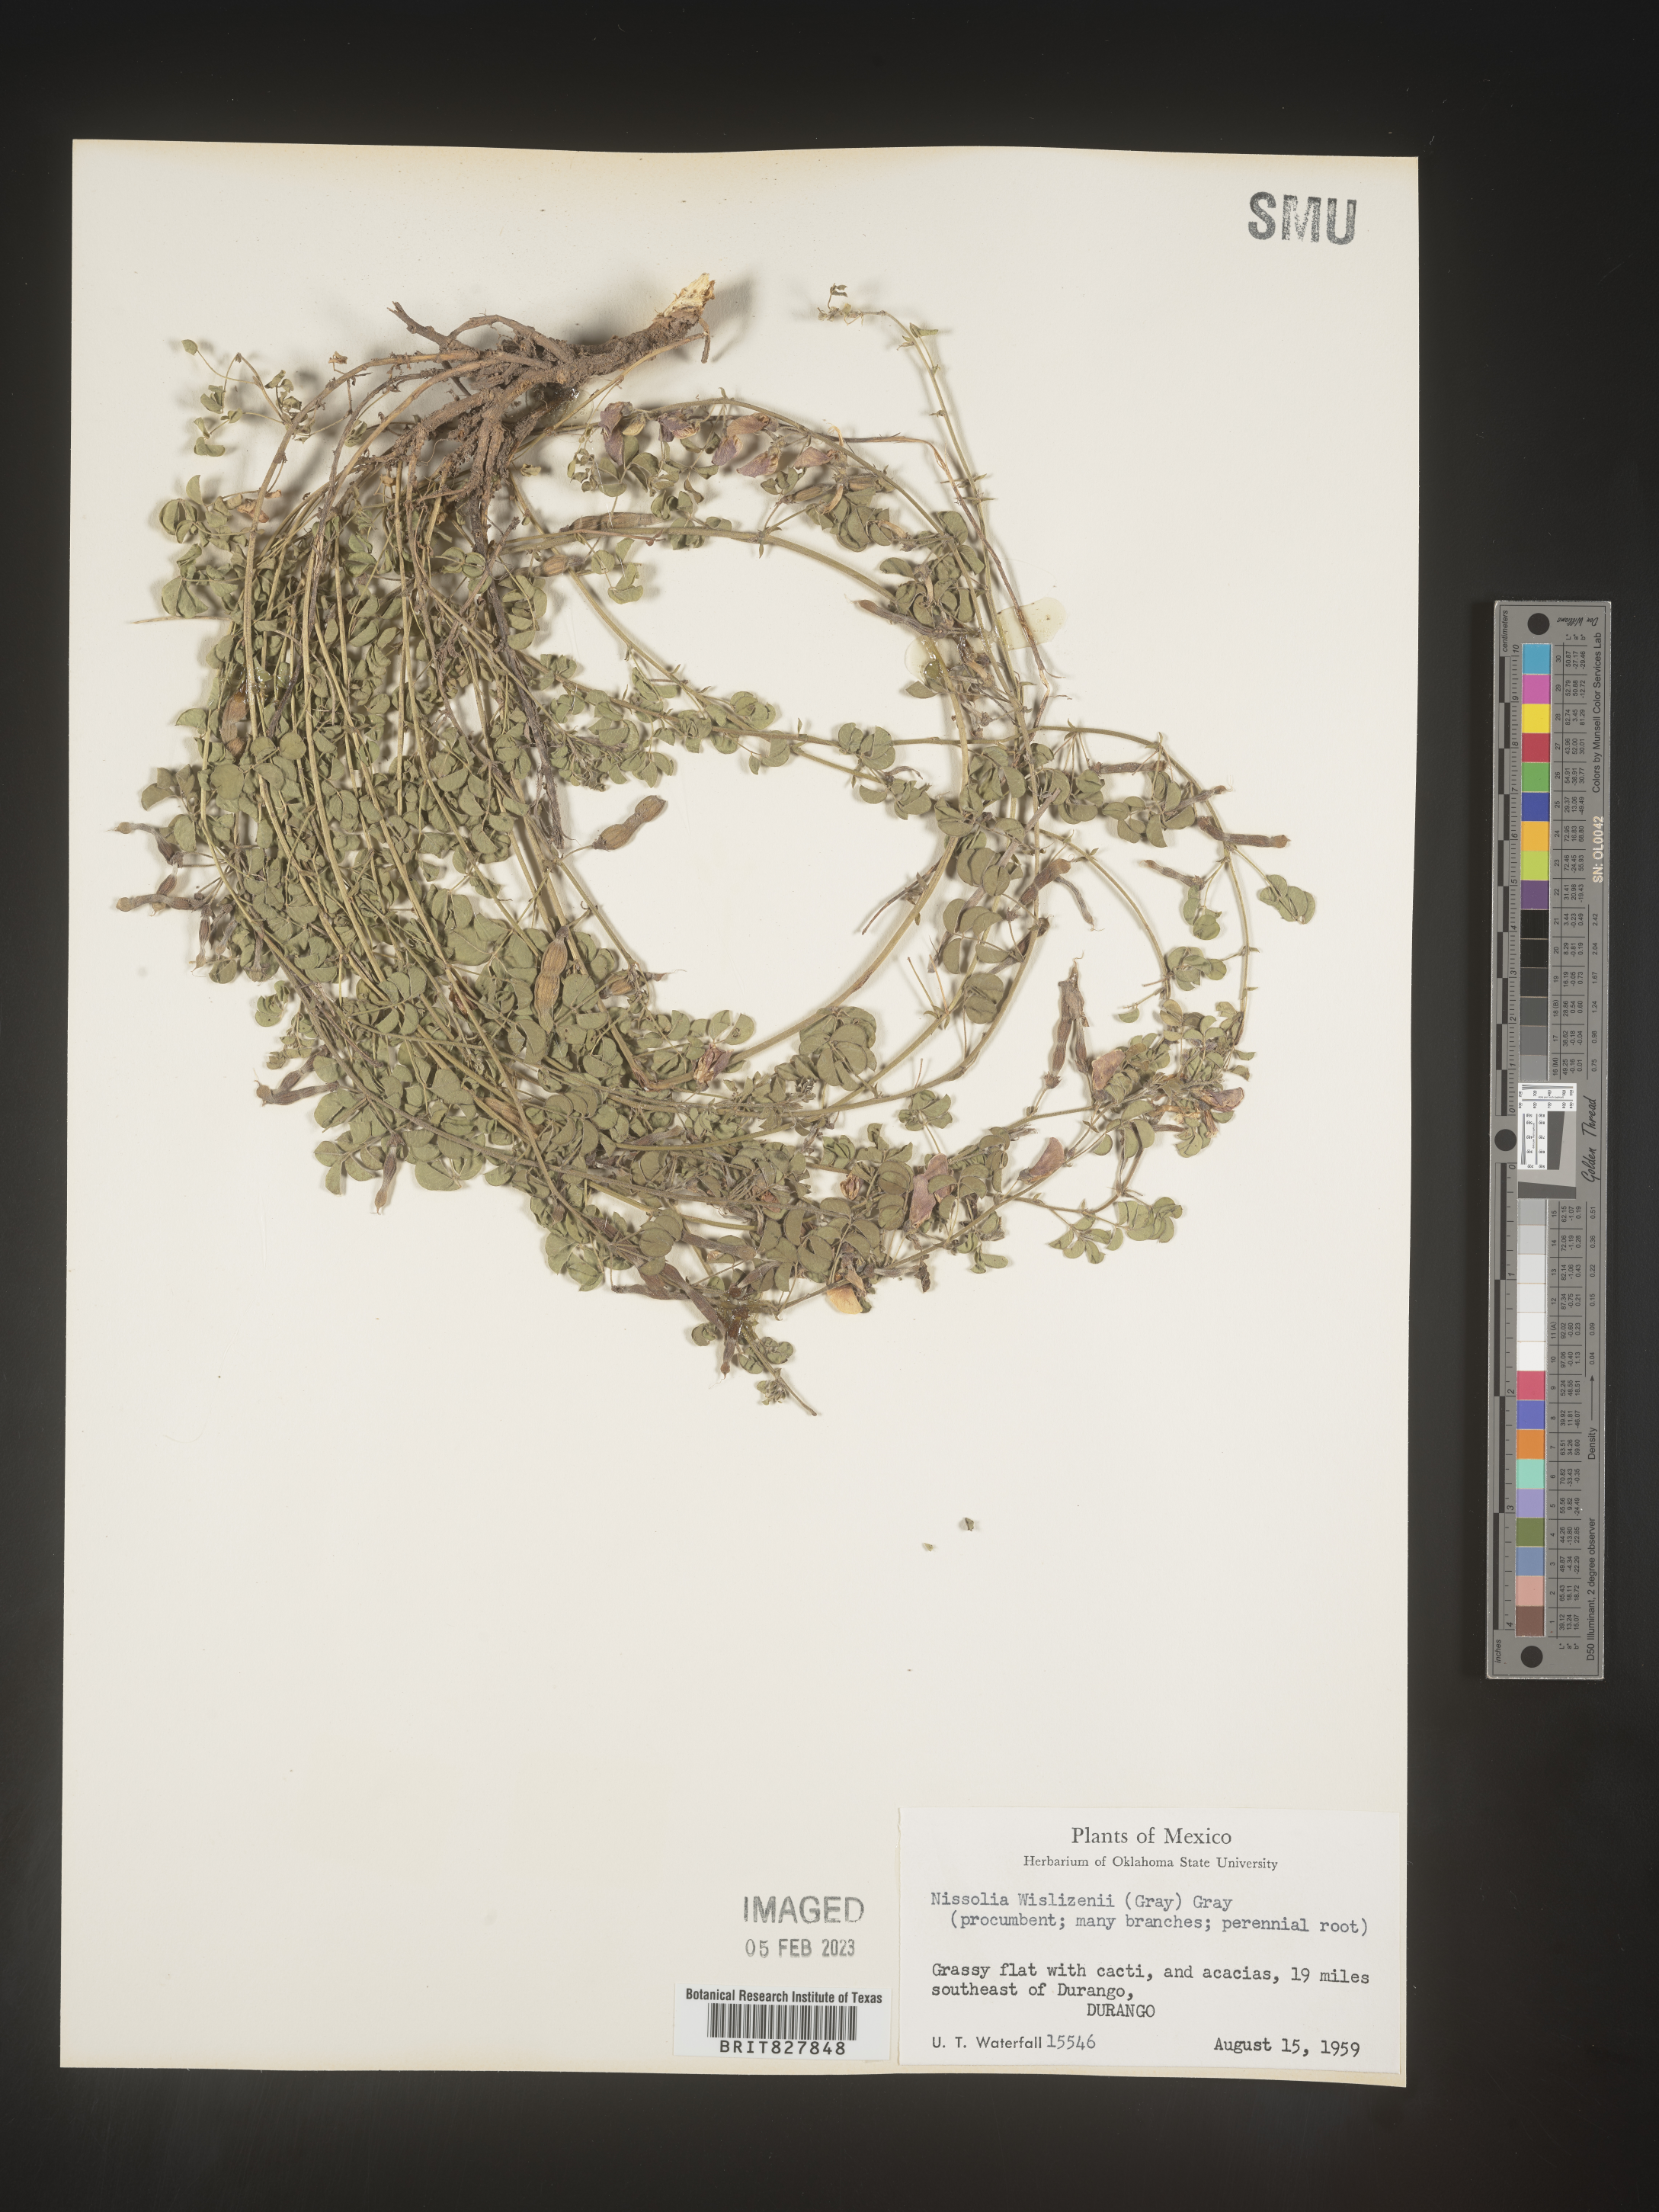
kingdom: Plantae
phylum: Tracheophyta
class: Magnoliopsida
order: Fabales
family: Fabaceae
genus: Nissolia
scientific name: Nissolia
